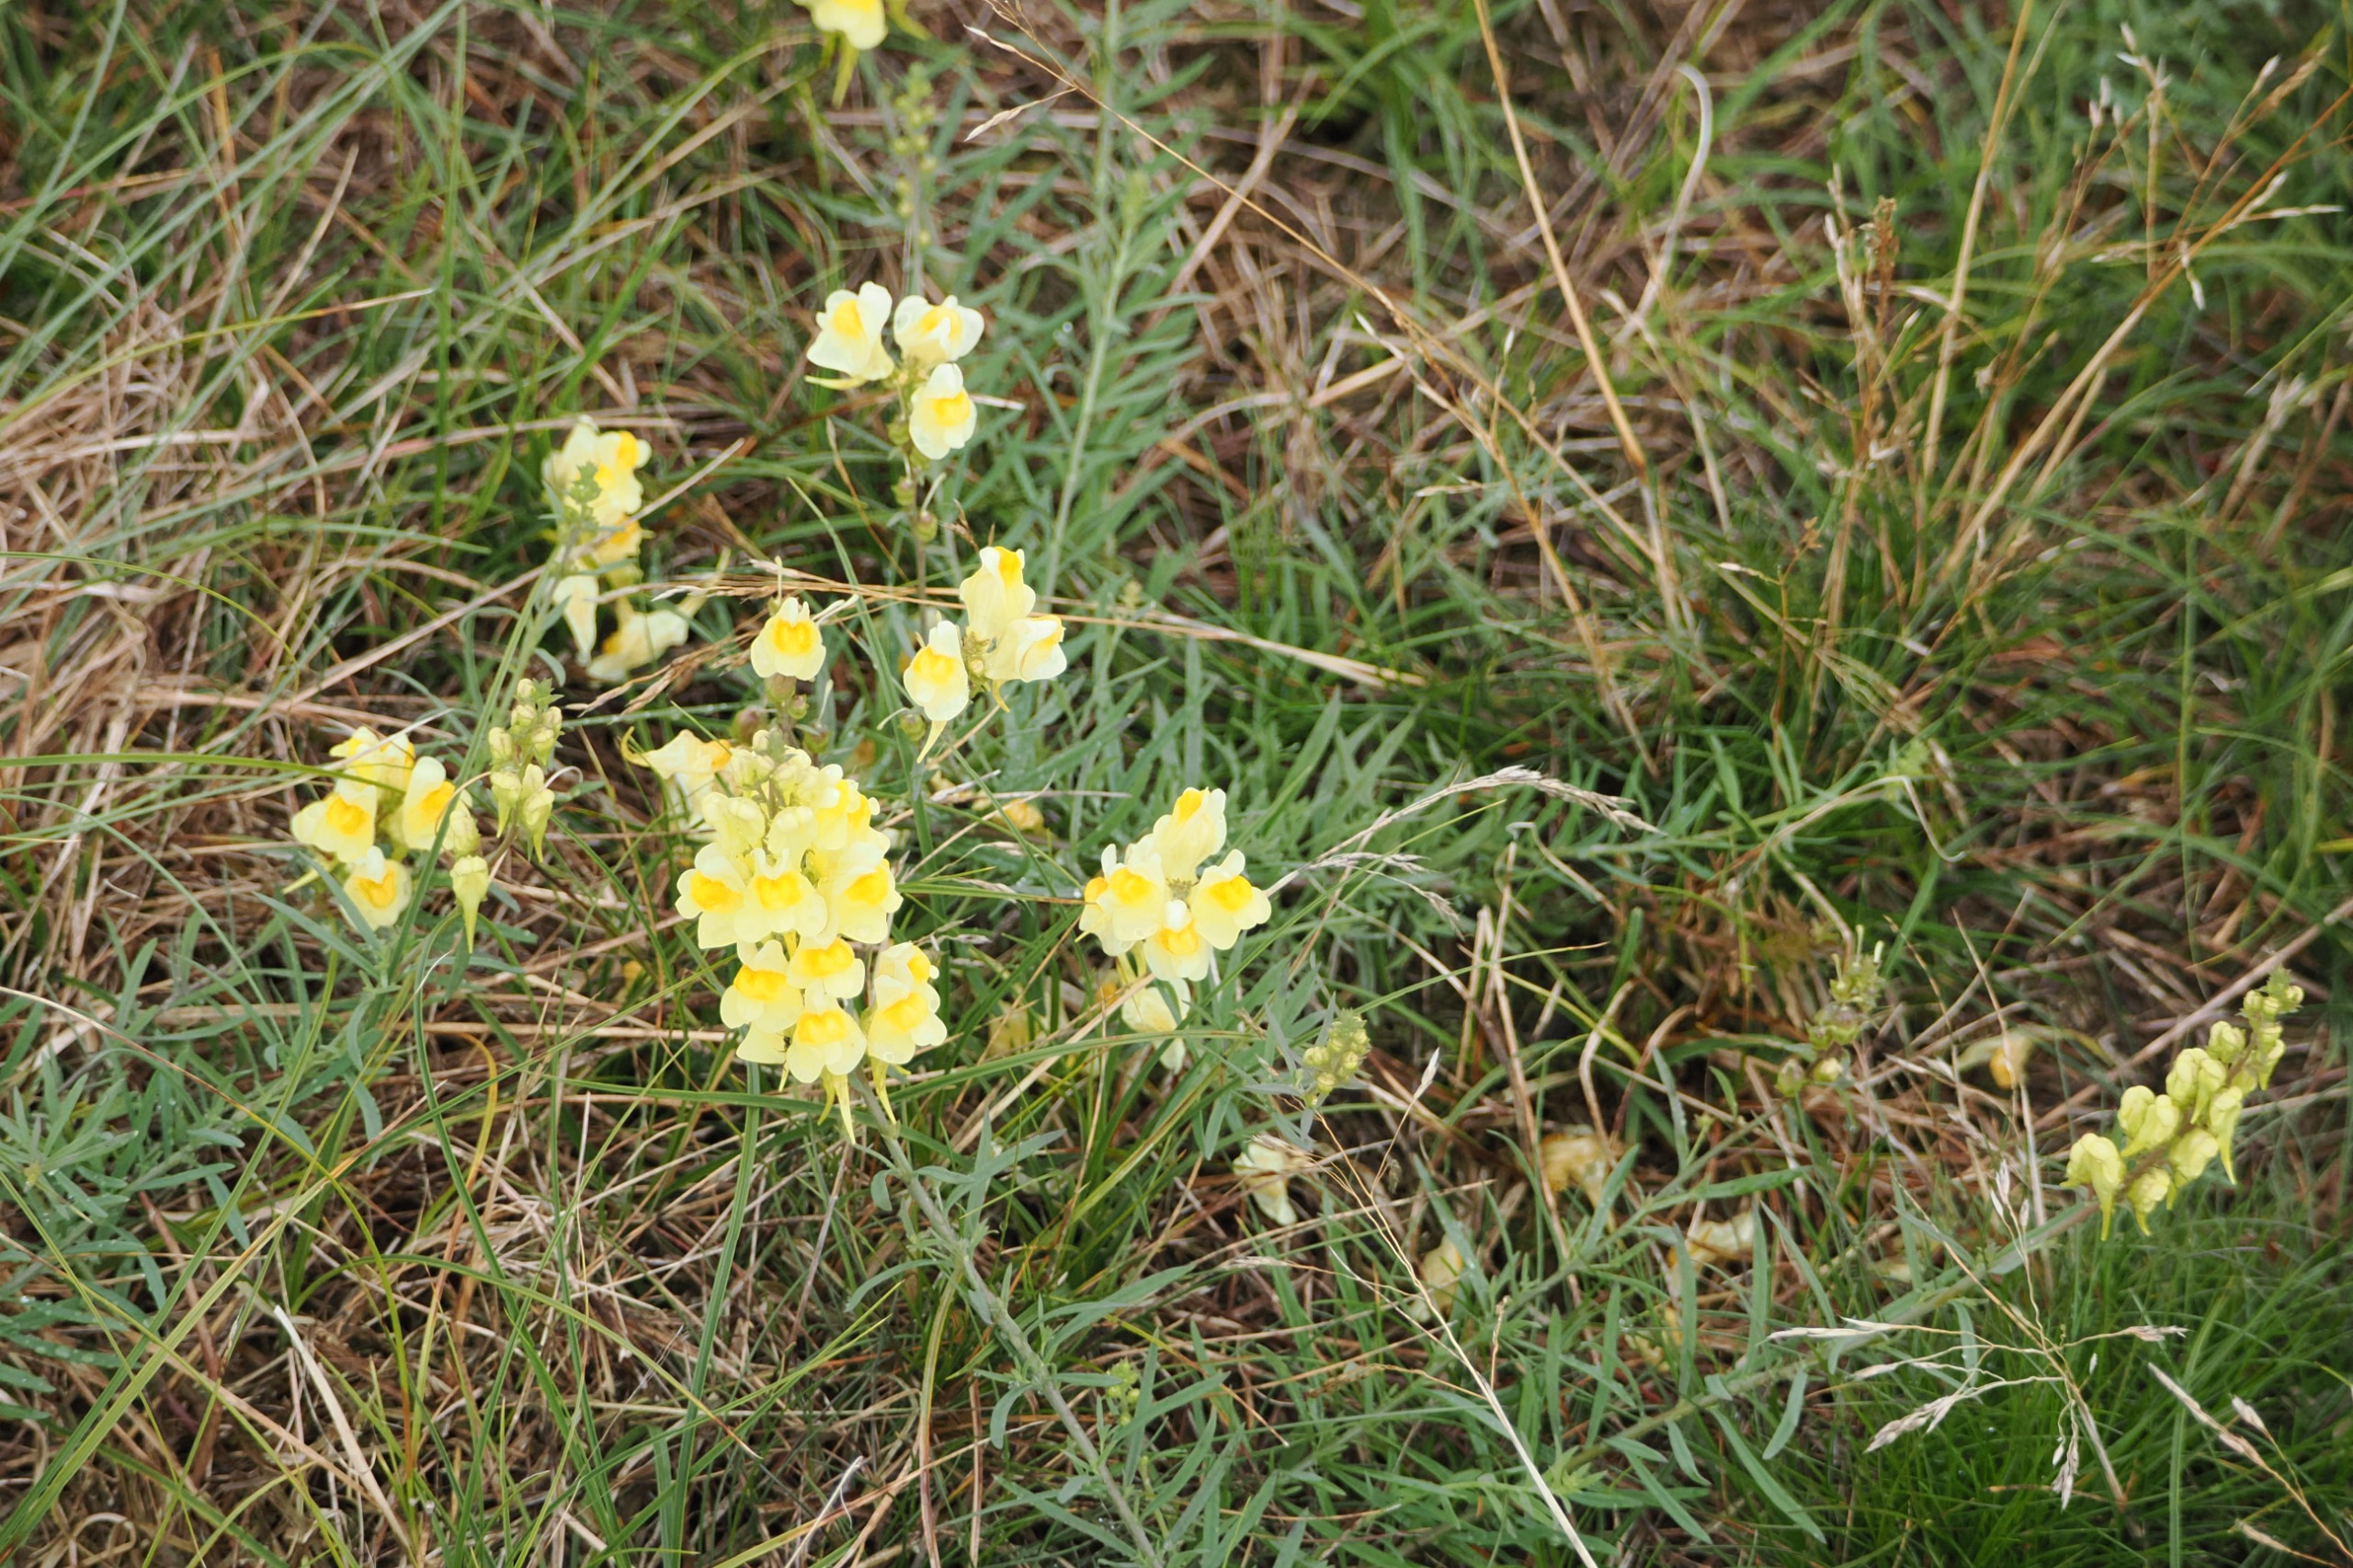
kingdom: Plantae
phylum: Tracheophyta
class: Magnoliopsida
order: Lamiales
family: Plantaginaceae
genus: Linaria
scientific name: Linaria vulgaris
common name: Almindelig torskemund
